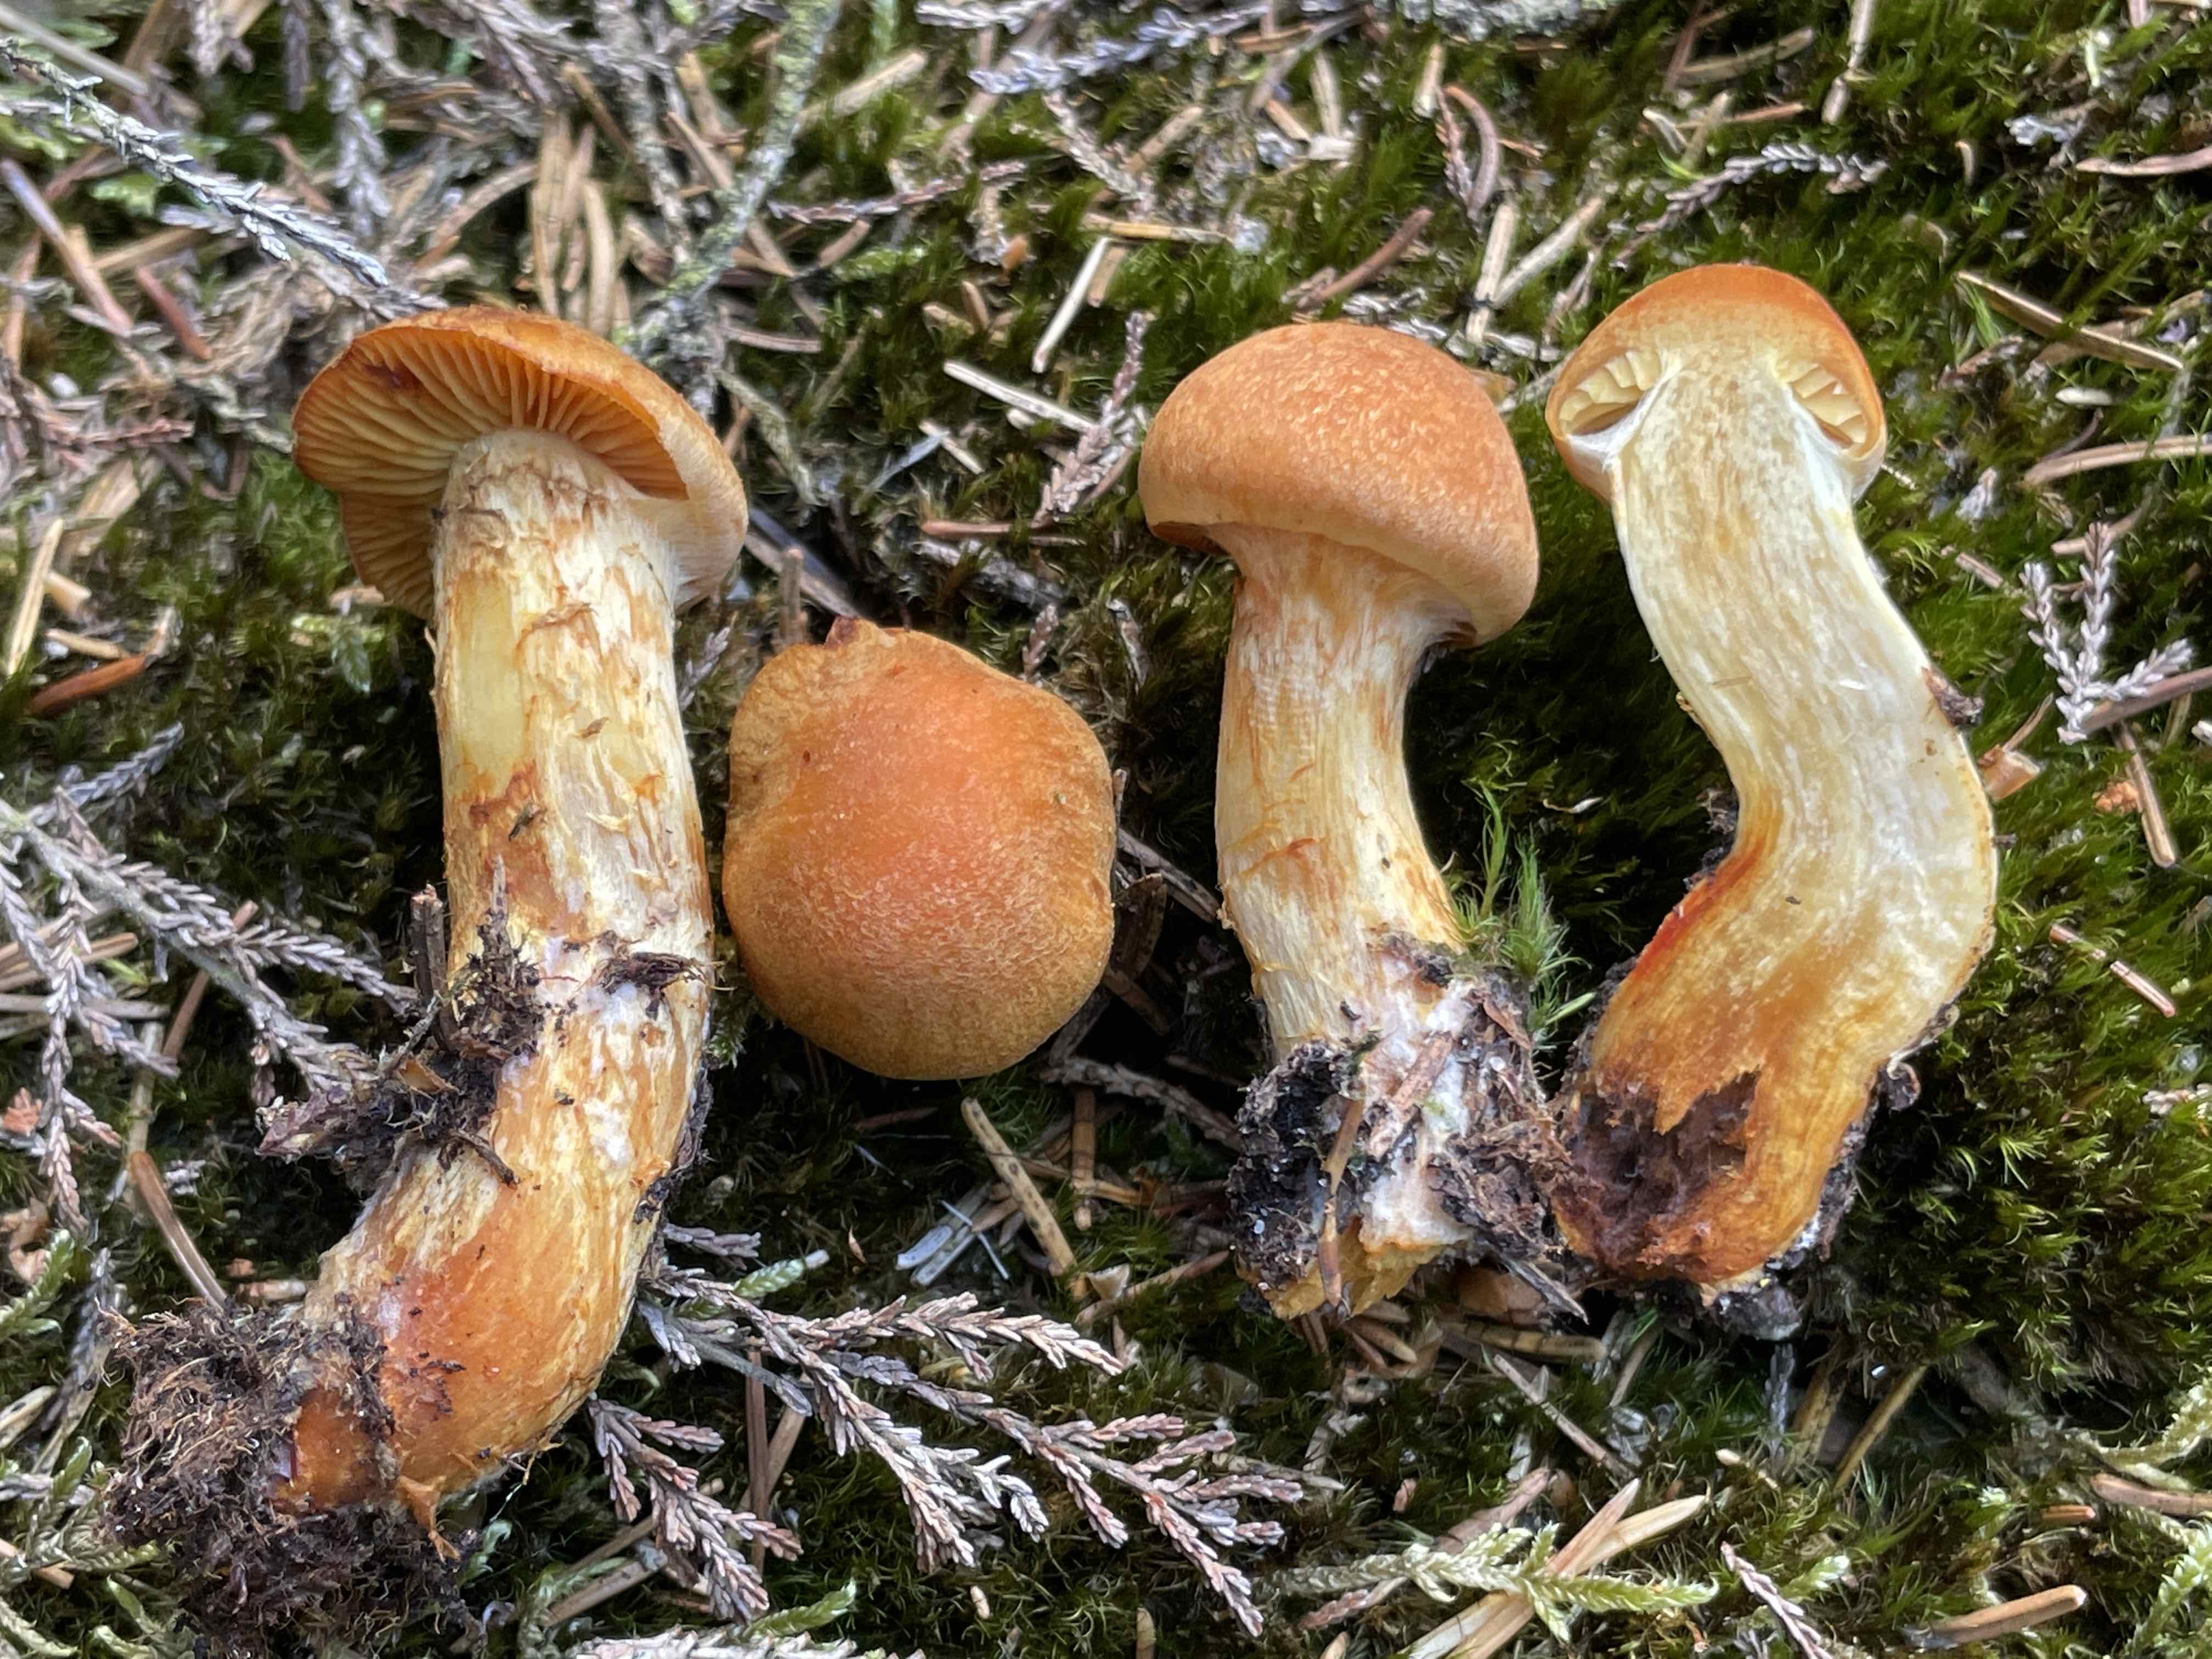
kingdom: Fungi
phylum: Basidiomycota
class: Agaricomycetes
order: Agaricales
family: Cortinariaceae
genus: Aureonarius
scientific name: Aureonarius limonius
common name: orangegul slørhat
